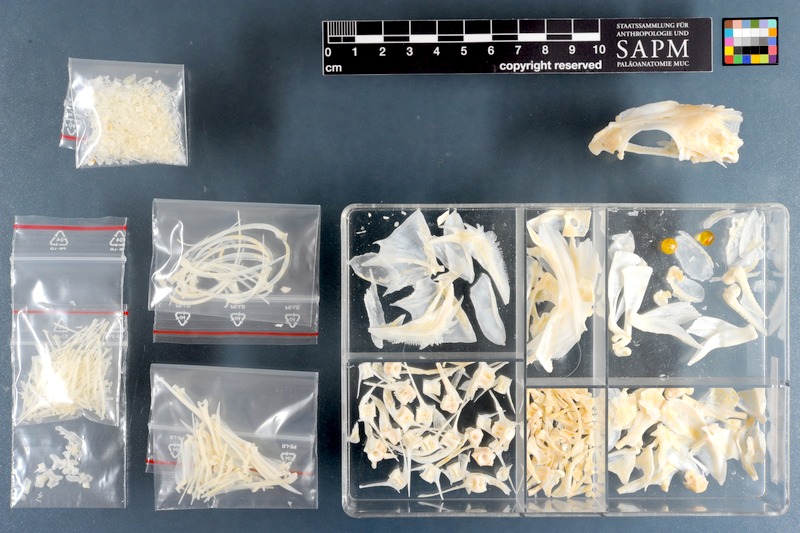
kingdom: Animalia
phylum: Chordata
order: Perciformes
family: Serranidae
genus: Acanthistius
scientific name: Acanthistius sebastoides
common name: Koester
